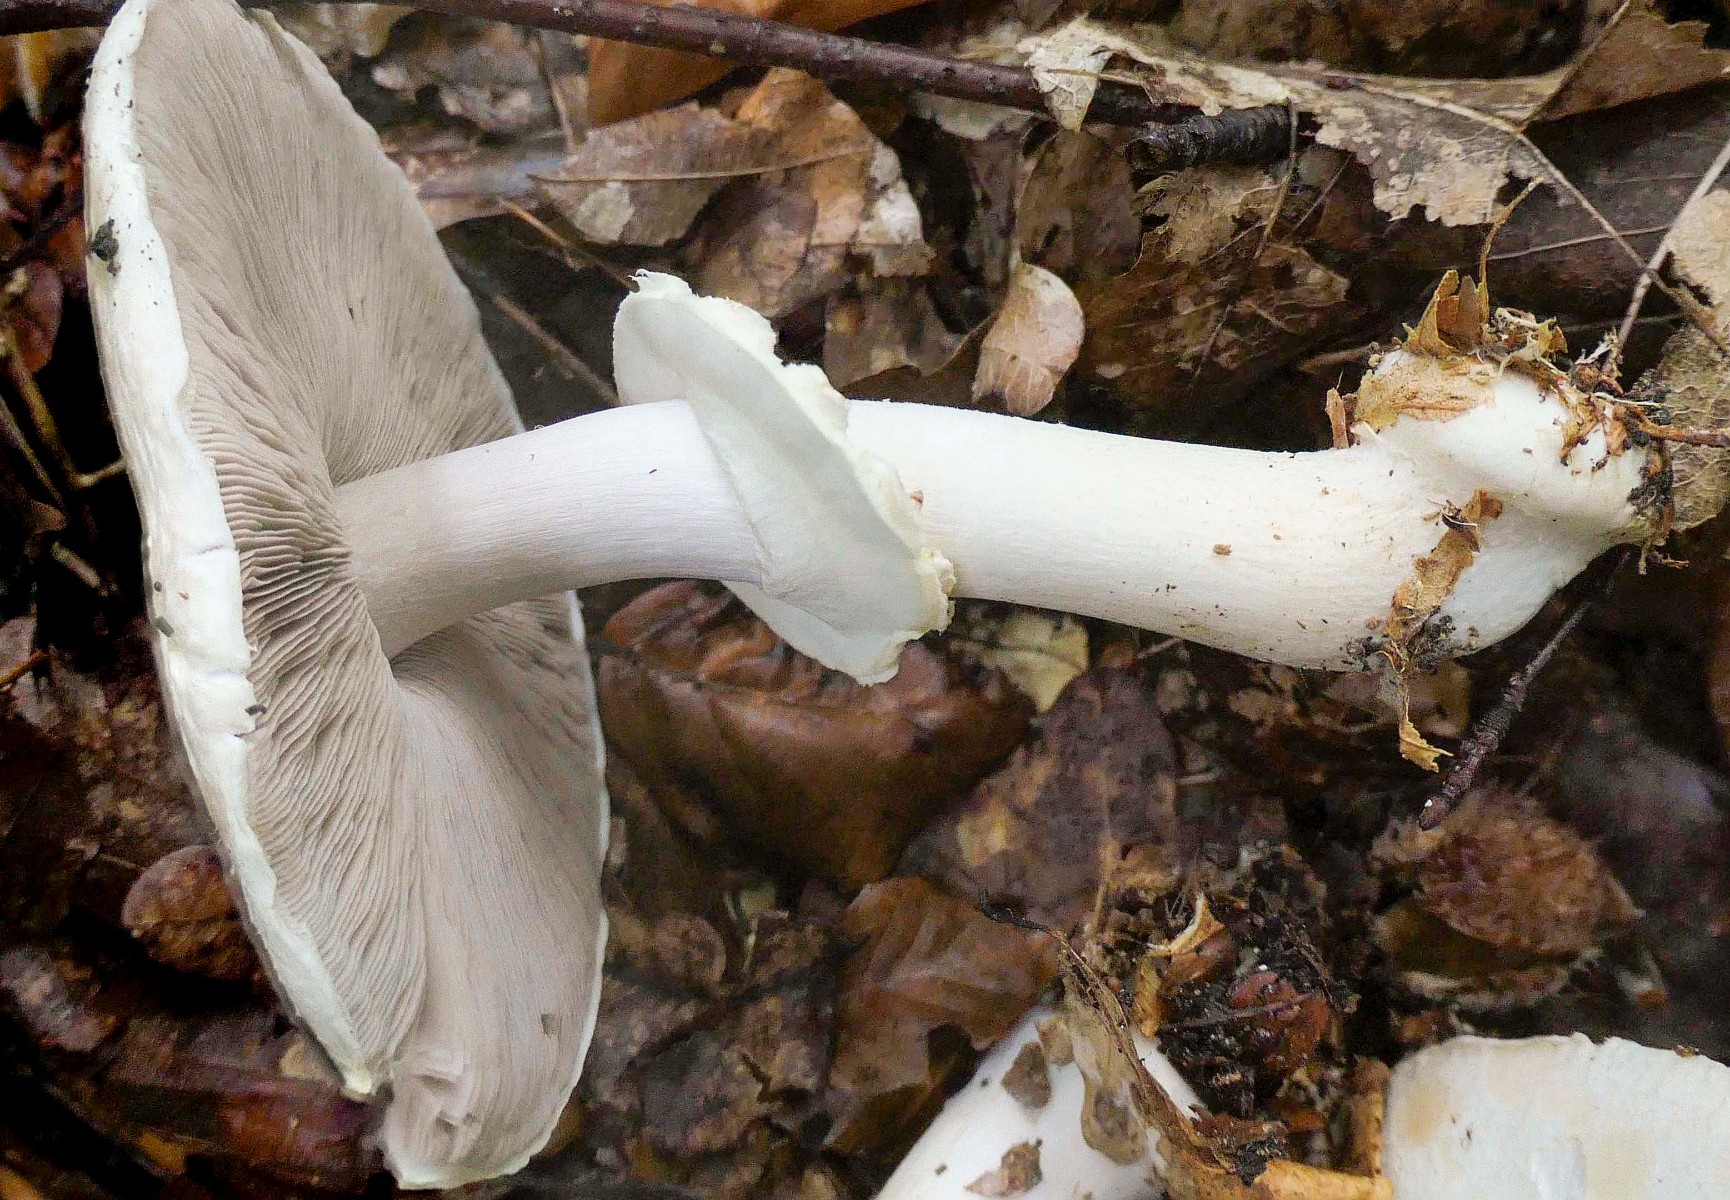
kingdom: Fungi
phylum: Basidiomycota
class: Agaricomycetes
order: Agaricales
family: Agaricaceae
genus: Agaricus
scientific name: Agaricus sylvicola
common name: skiveknoldet champignon
